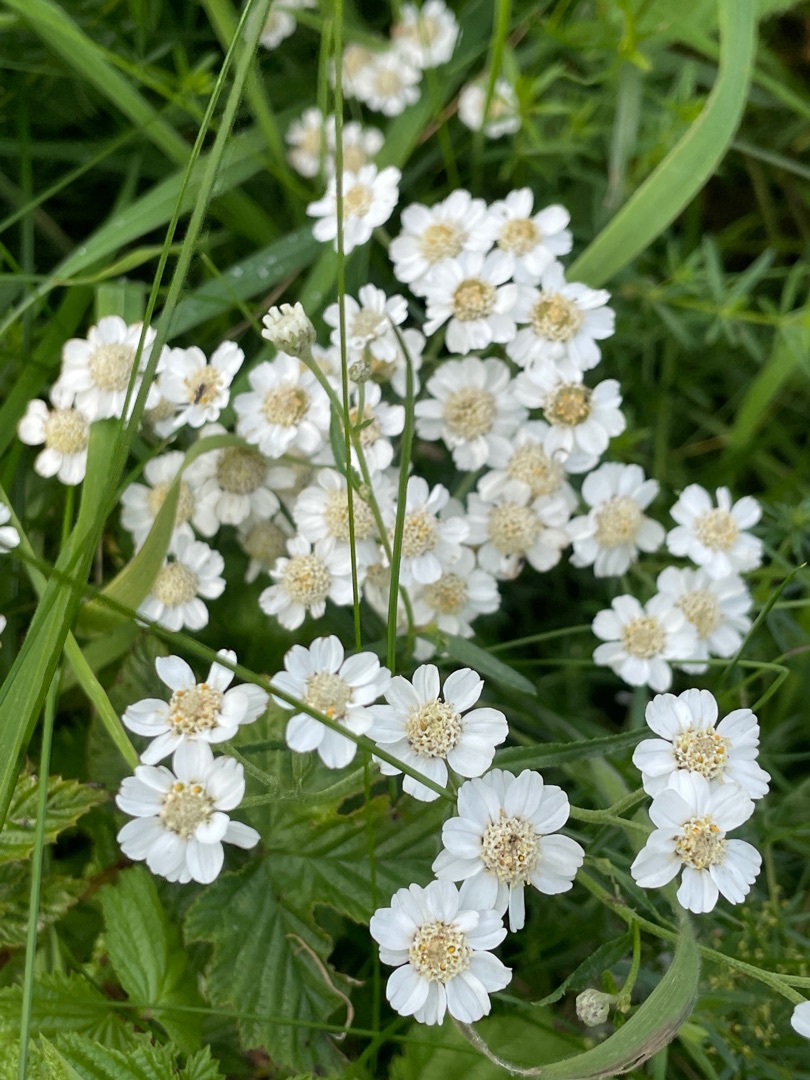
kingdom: Plantae
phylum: Tracheophyta
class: Magnoliopsida
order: Asterales
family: Asteraceae
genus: Achillea
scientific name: Achillea ptarmica
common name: Nyse-røllike
